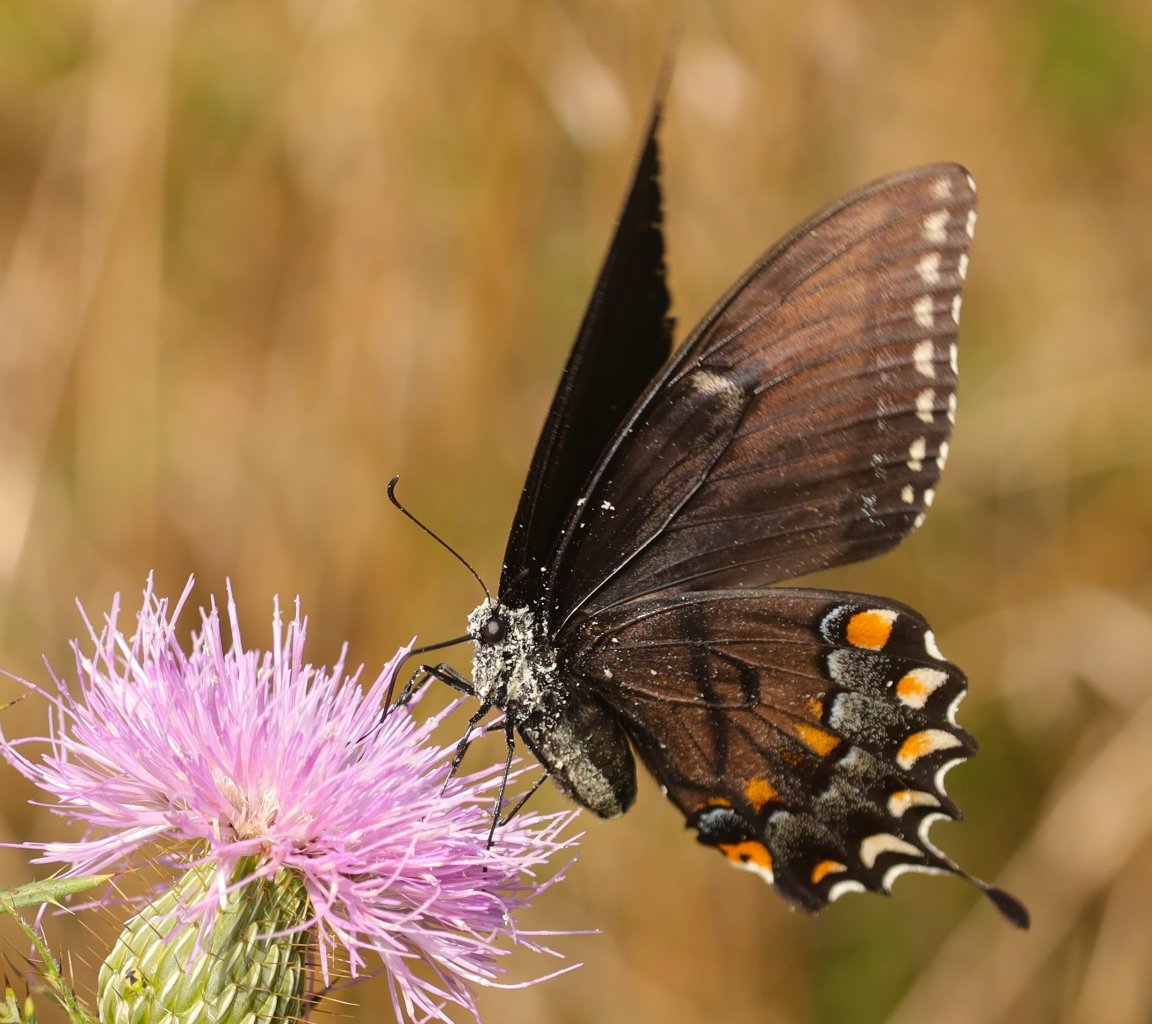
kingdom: Animalia
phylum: Arthropoda
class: Insecta
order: Lepidoptera
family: Papilionidae
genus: Pterourus
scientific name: Pterourus glaucus
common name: Eastern Tiger Swallowtail
